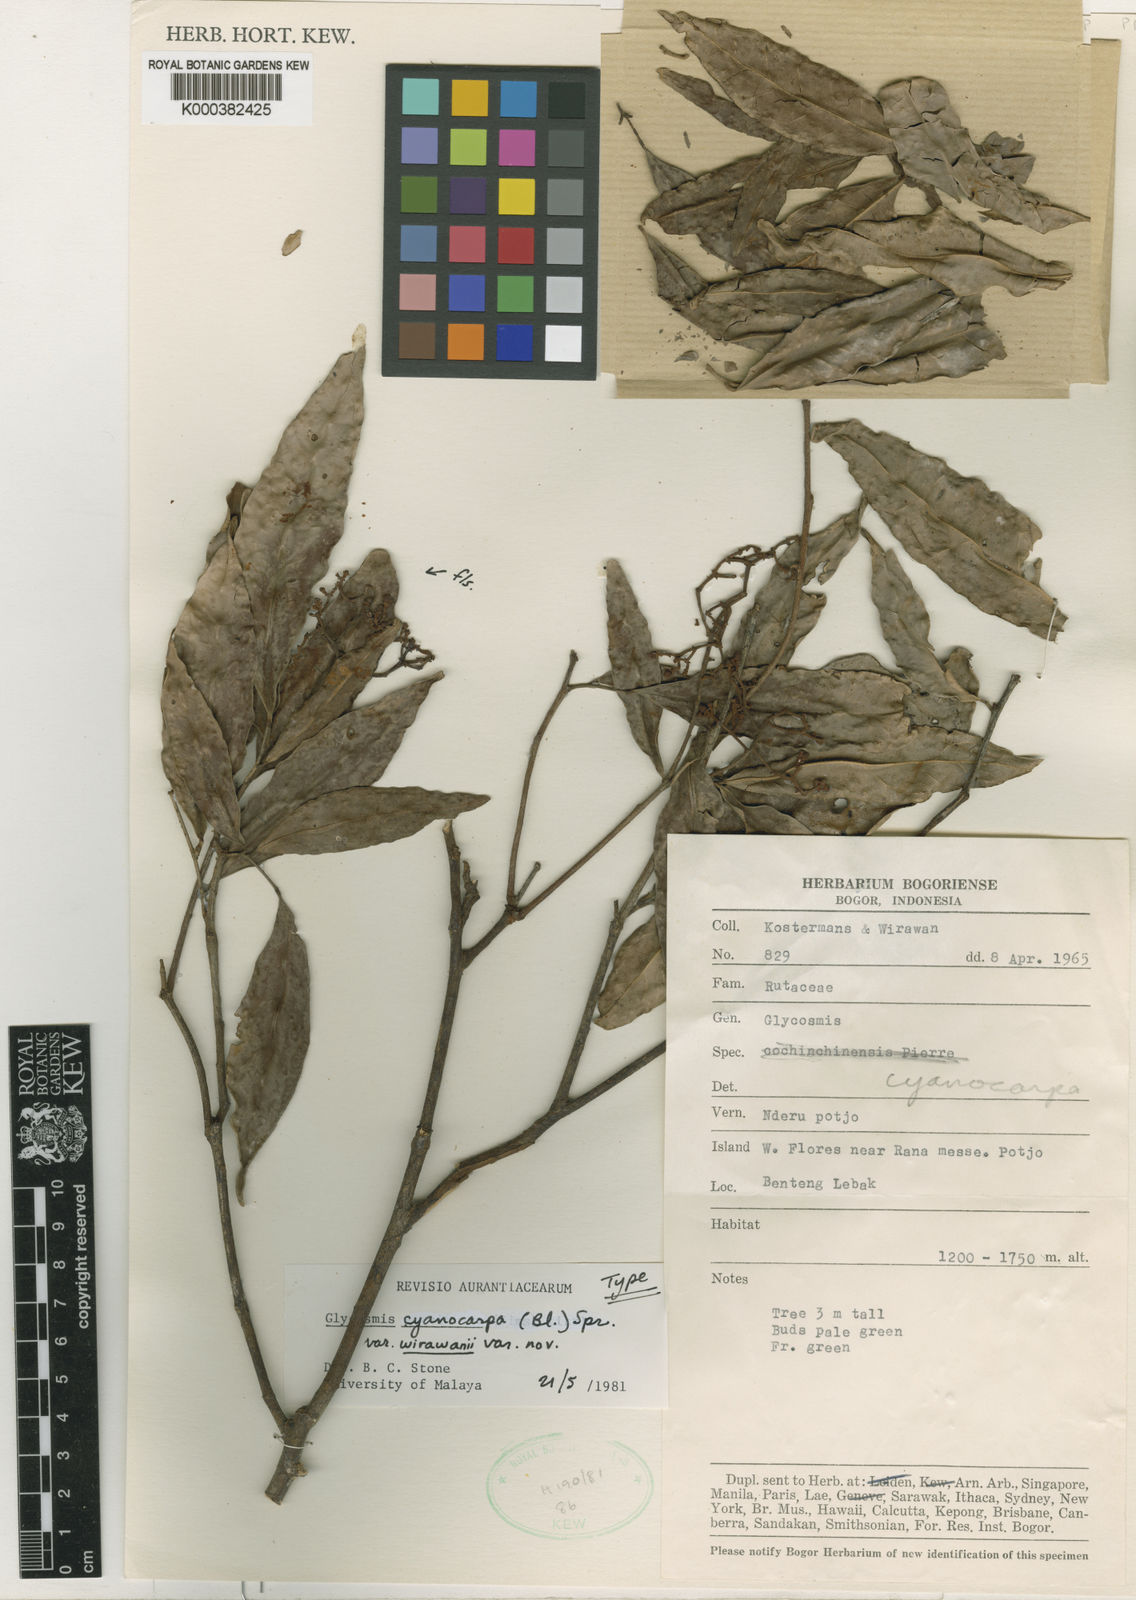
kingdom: Plantae
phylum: Tracheophyta
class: Magnoliopsida
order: Sapindales
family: Rutaceae
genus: Glycosmis
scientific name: Glycosmis cyanocarpa
